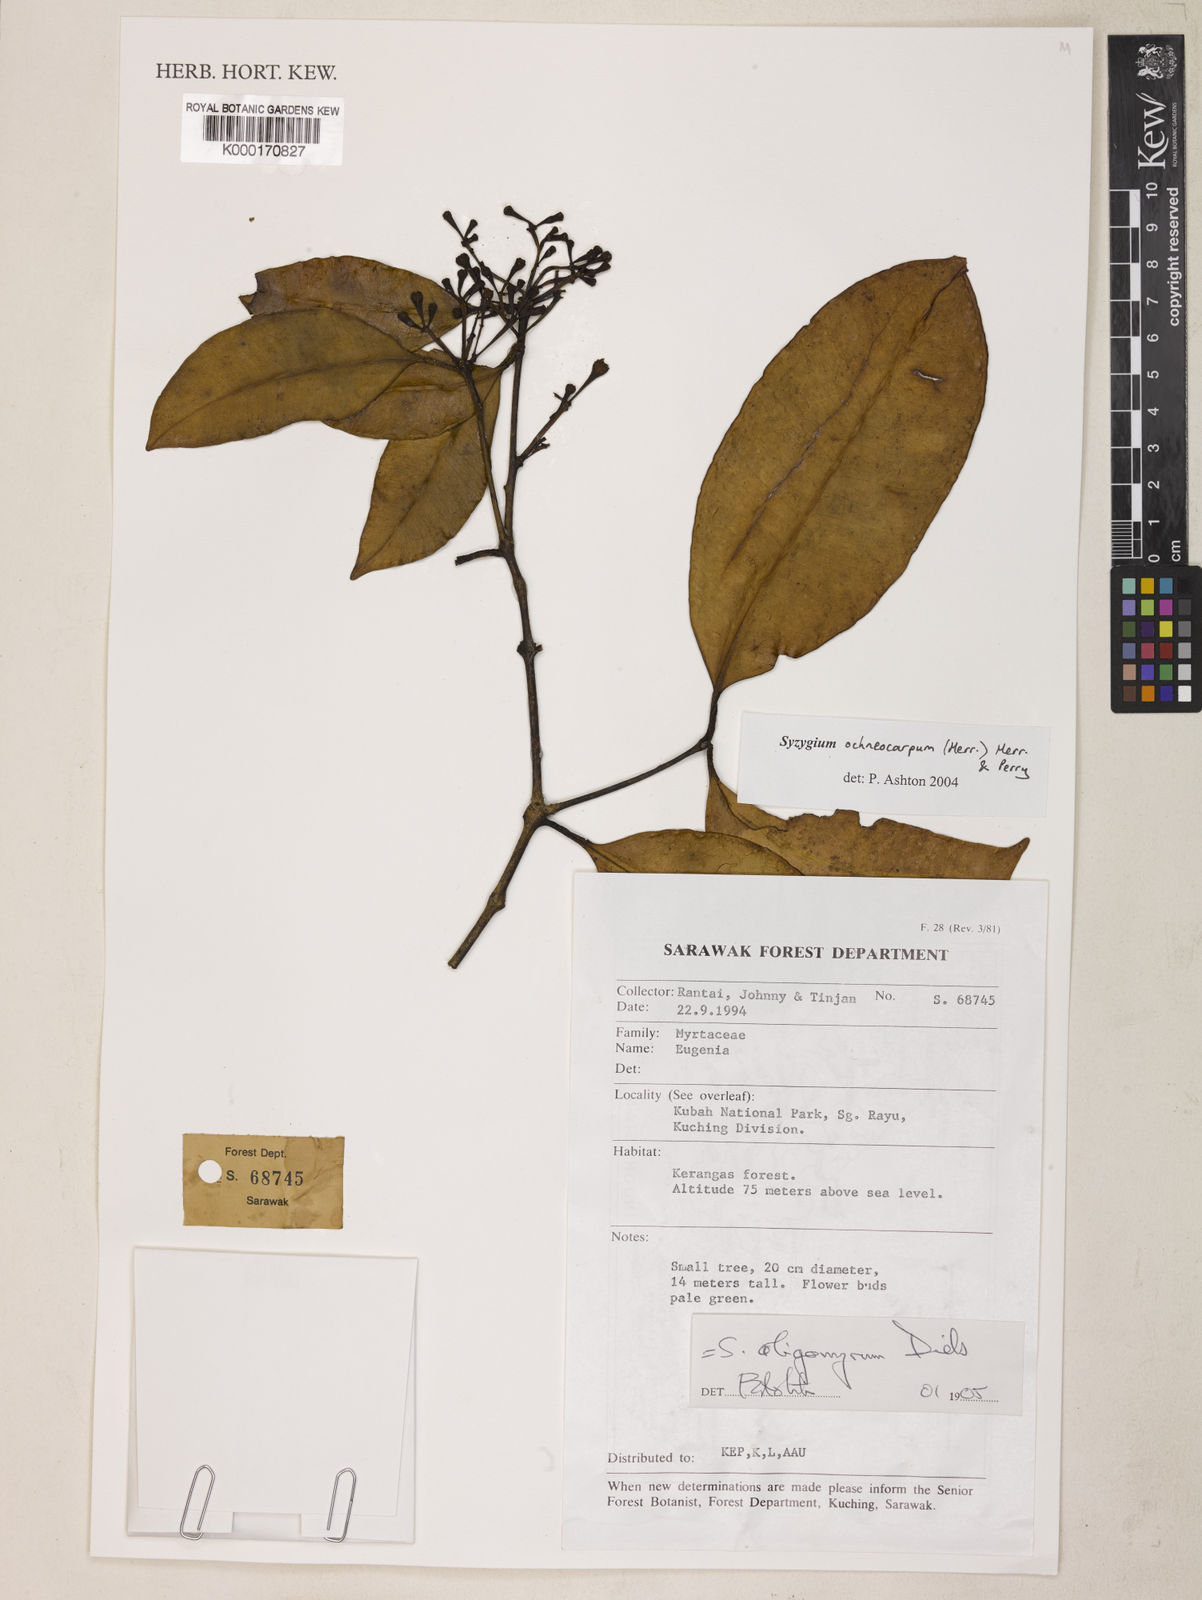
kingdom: Plantae
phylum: Tracheophyta
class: Magnoliopsida
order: Myrtales
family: Myrtaceae
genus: Syzygium
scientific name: Syzygium oligomyrum
